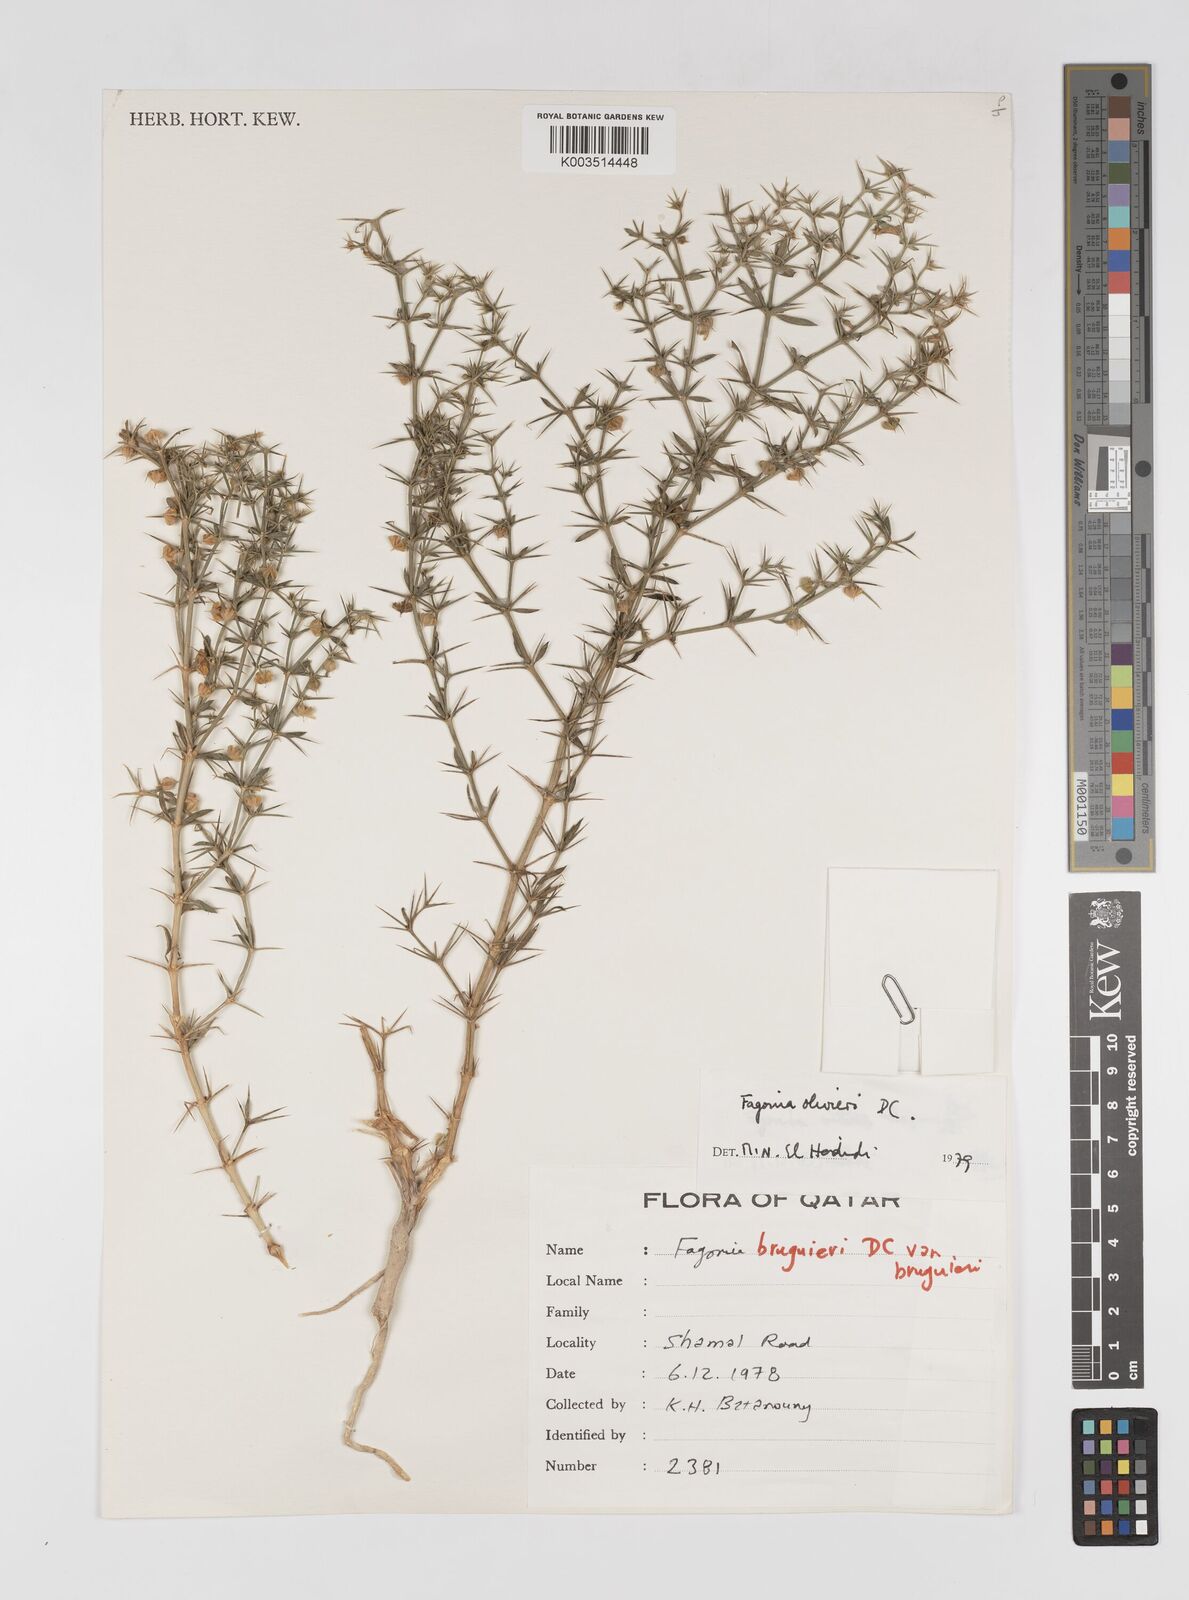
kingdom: Plantae
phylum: Tracheophyta
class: Magnoliopsida
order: Zygophyllales
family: Zygophyllaceae
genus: Fagonia
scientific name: Fagonia indica
